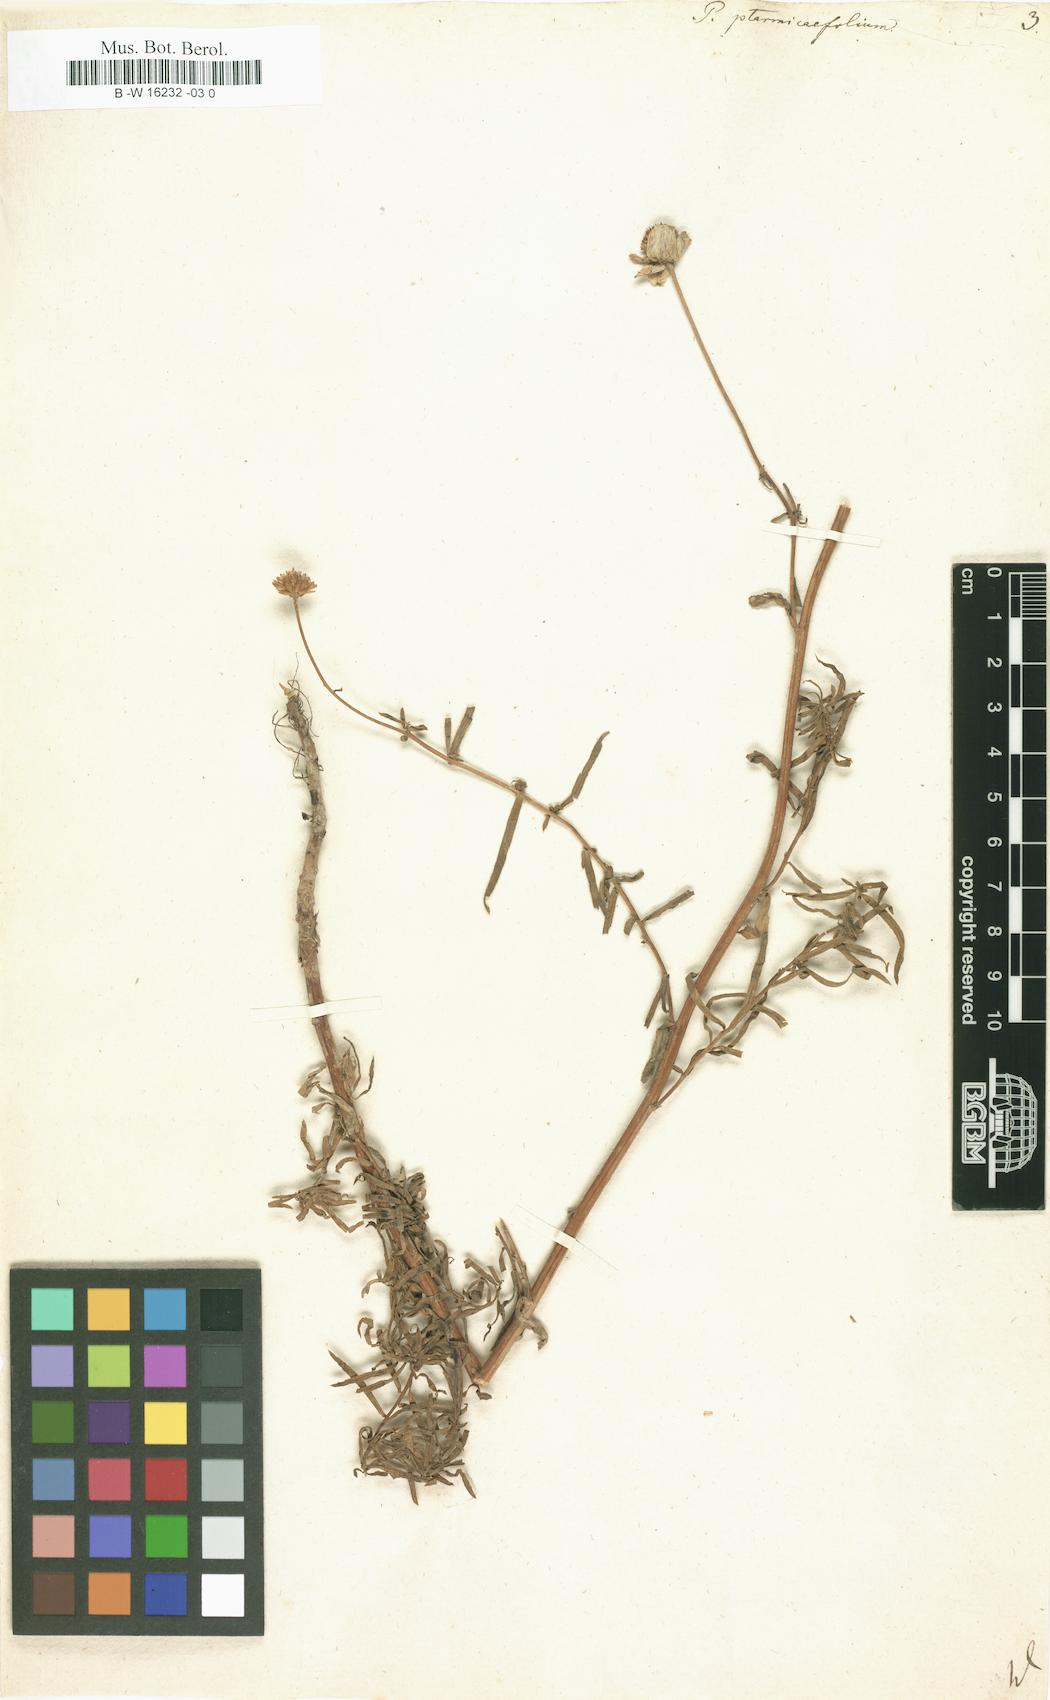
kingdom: Plantae
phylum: Tracheophyta
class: Magnoliopsida
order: Asterales
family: Asteraceae
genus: Achillea
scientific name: Achillea ptarmicifolia
